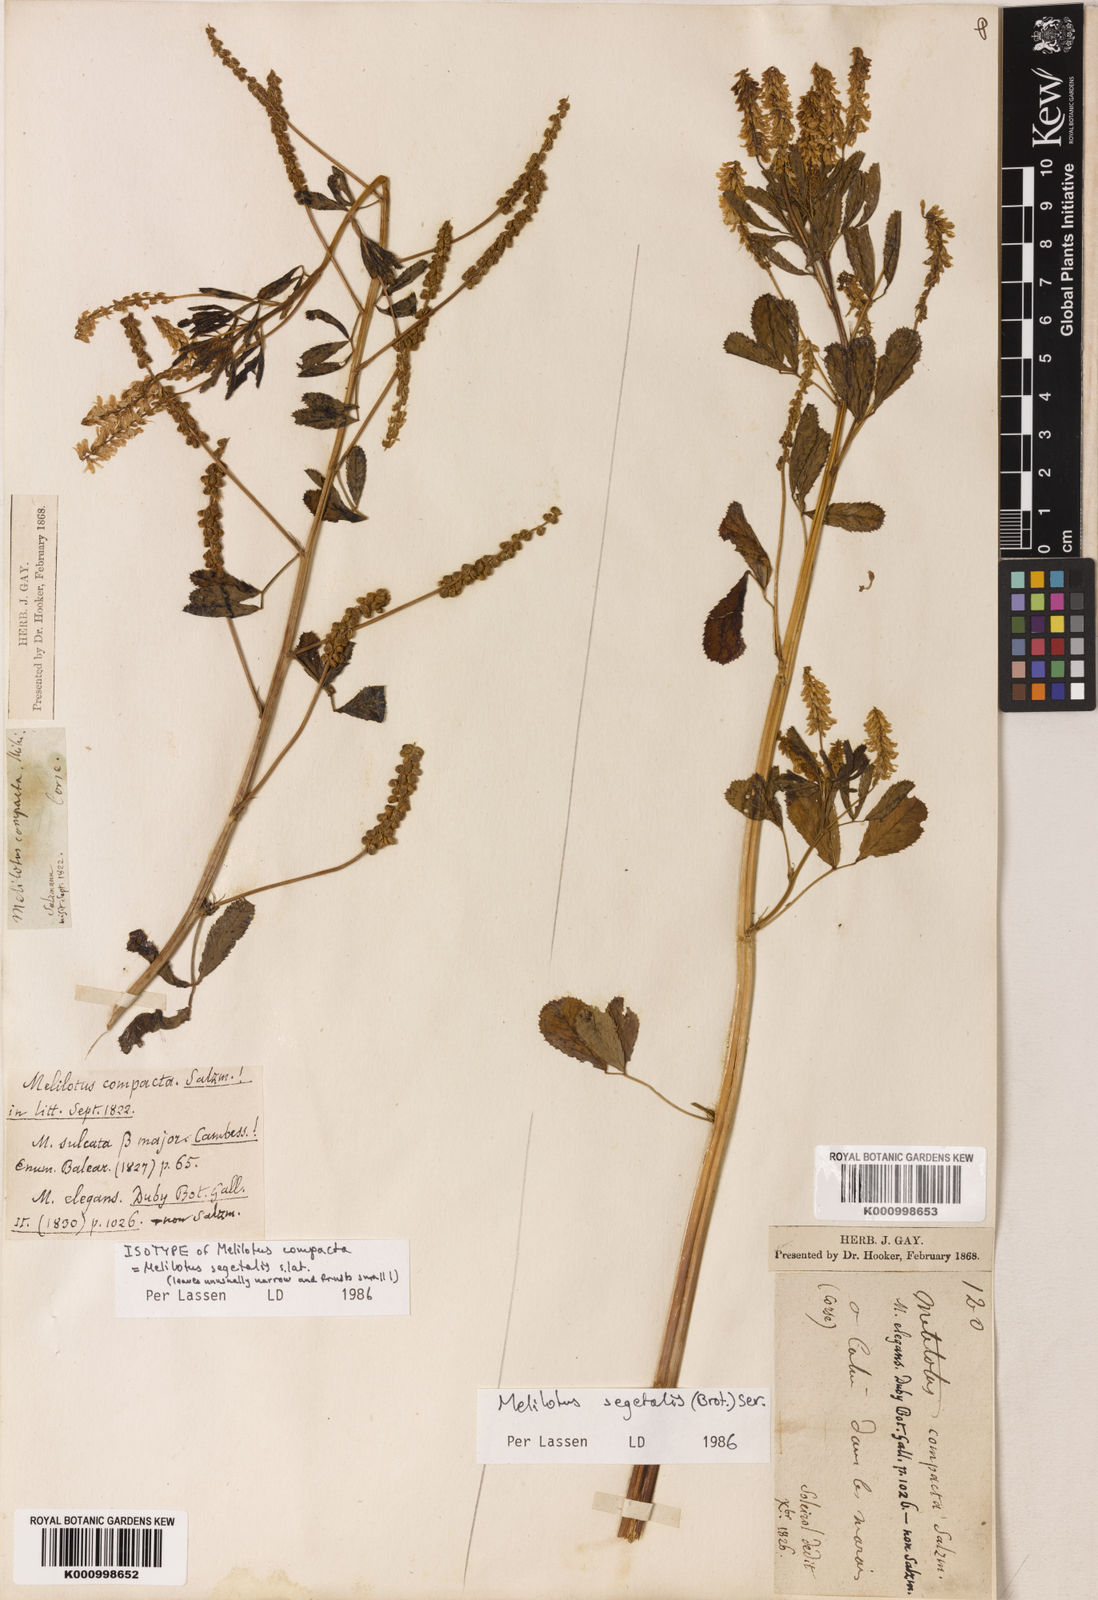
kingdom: Plantae
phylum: Tracheophyta
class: Magnoliopsida
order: Fabales
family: Fabaceae
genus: Melilotus
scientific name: Melilotus segetalis
